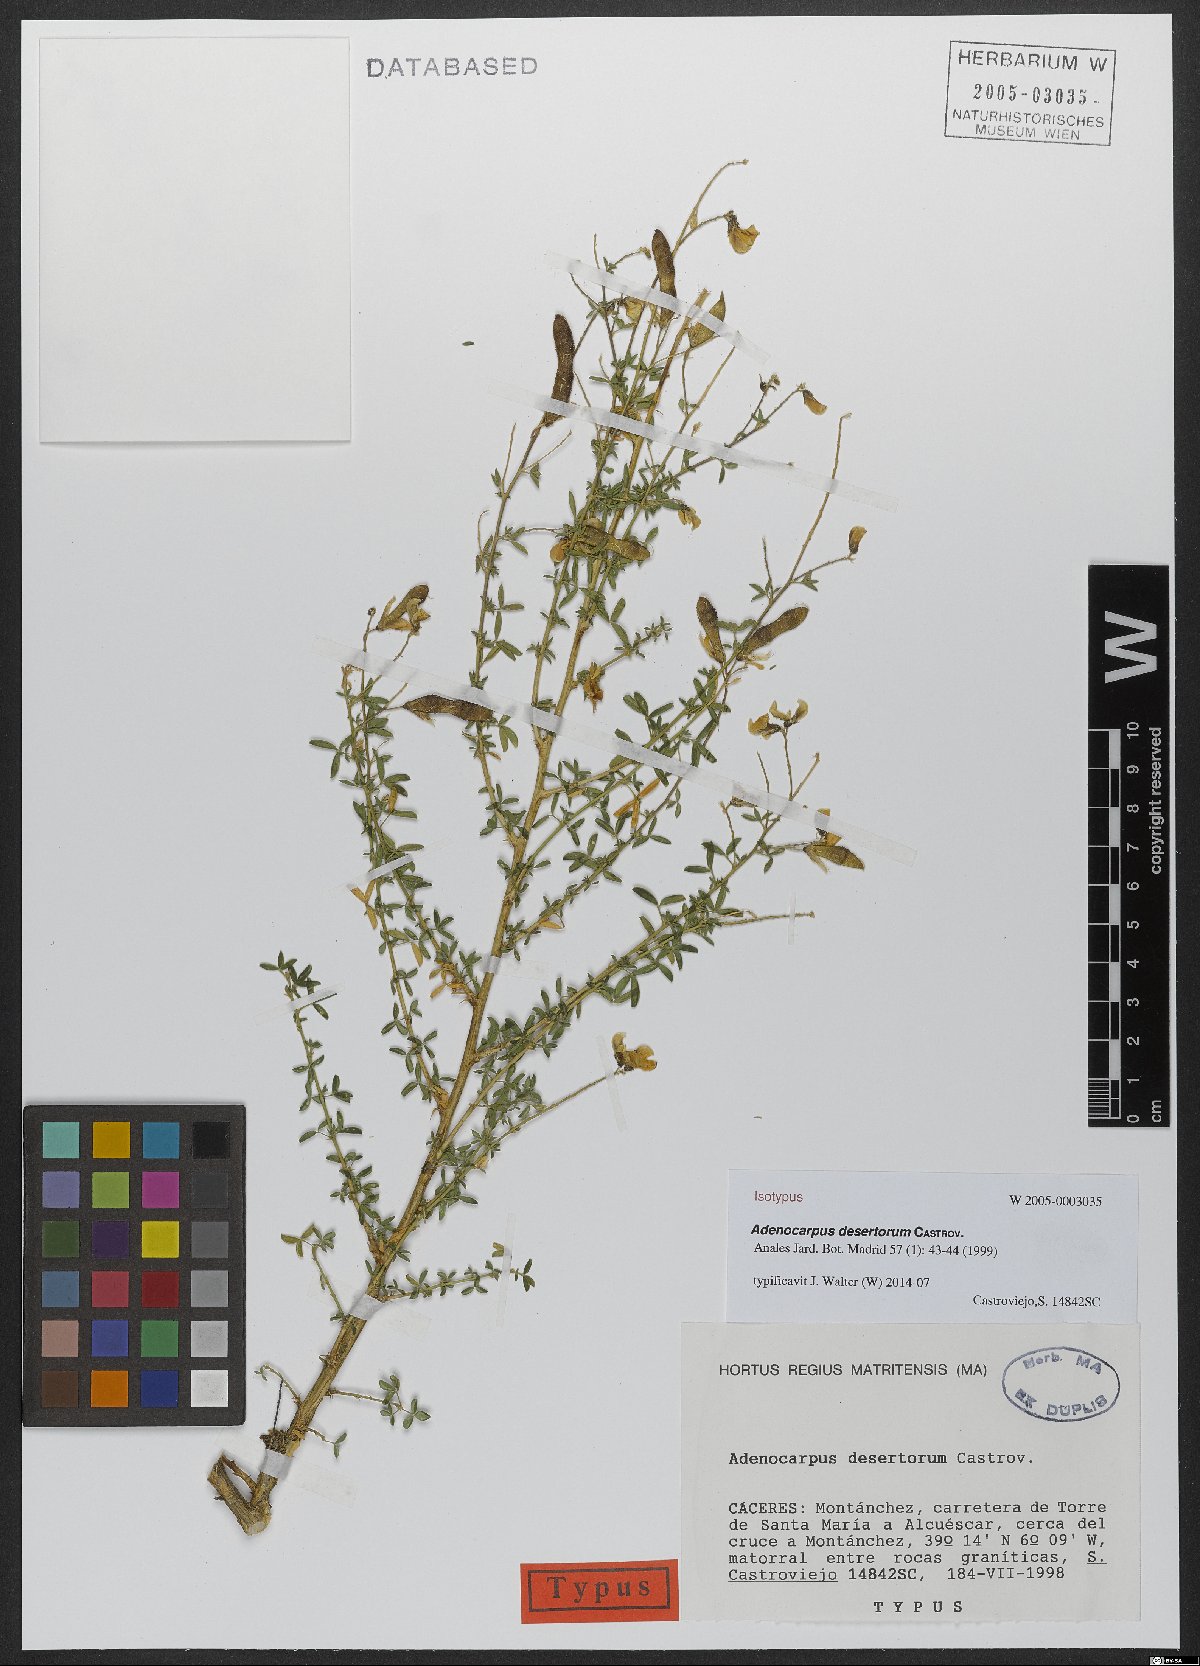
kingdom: Plantae
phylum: Tracheophyta
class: Magnoliopsida
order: Fabales
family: Fabaceae
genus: Adenocarpus
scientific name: Adenocarpus desertorum
